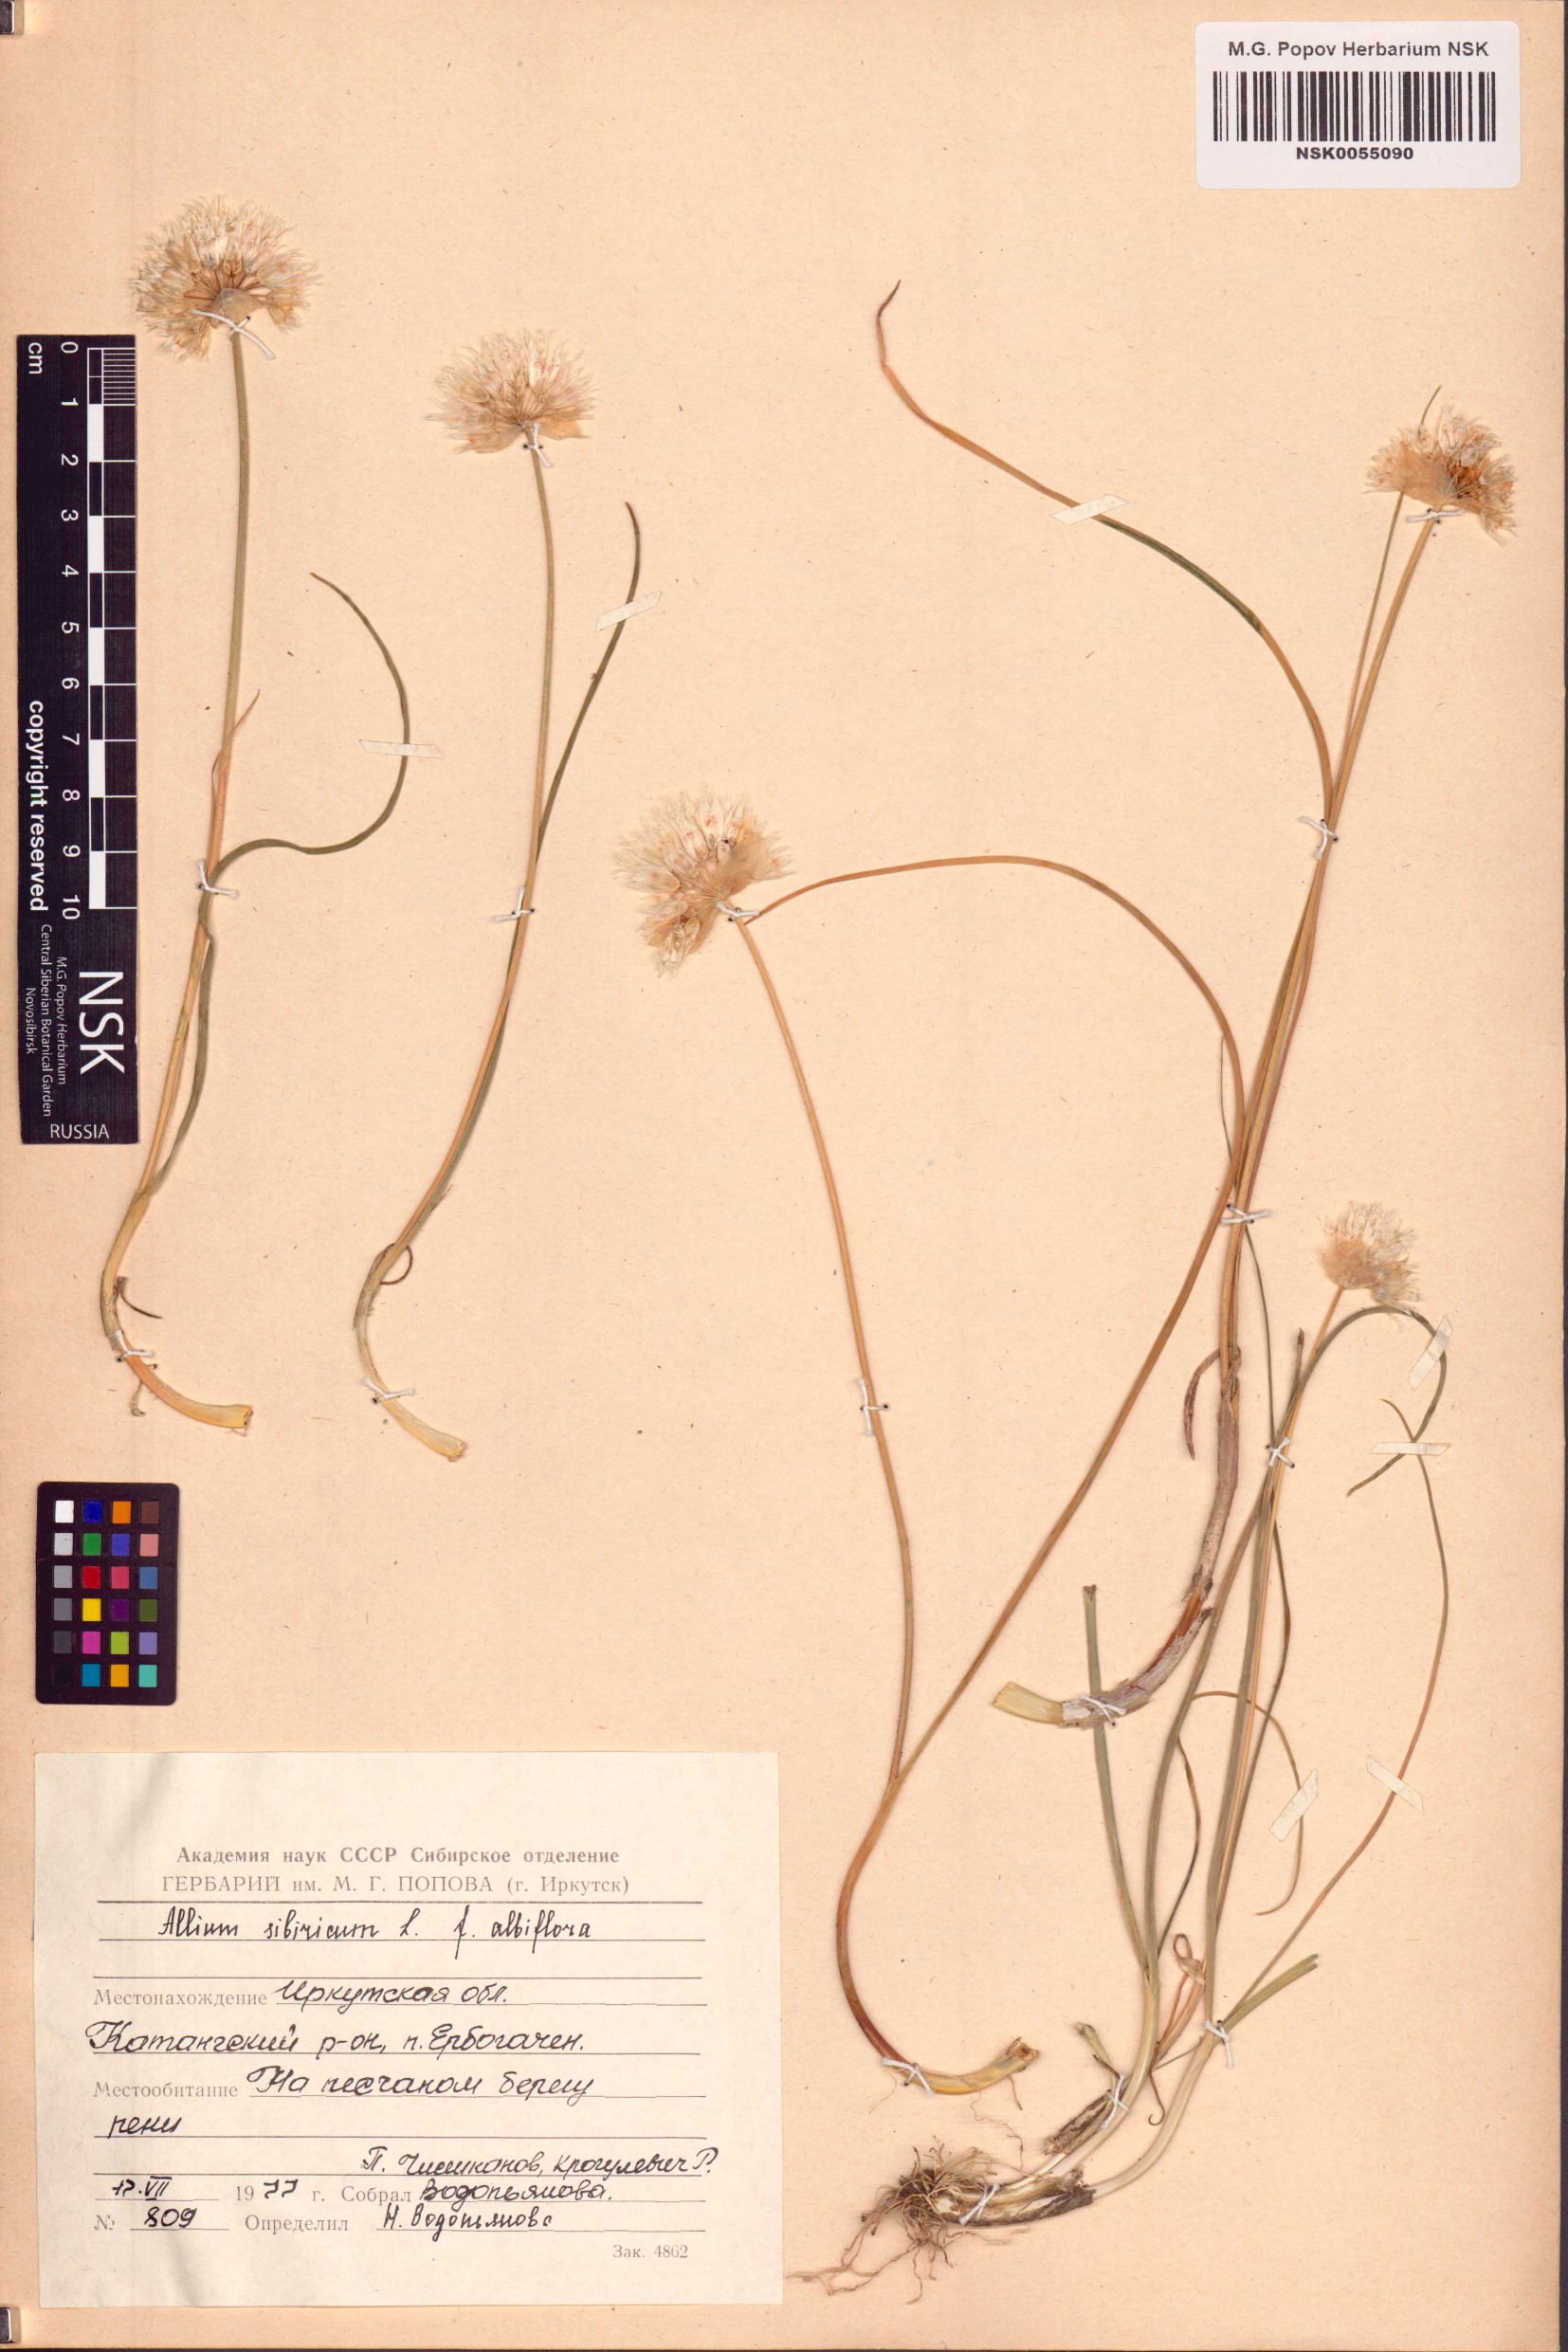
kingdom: Plantae
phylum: Tracheophyta
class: Liliopsida
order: Asparagales
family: Amaryllidaceae
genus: Allium
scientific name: Allium schoenoprasum
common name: Chives
